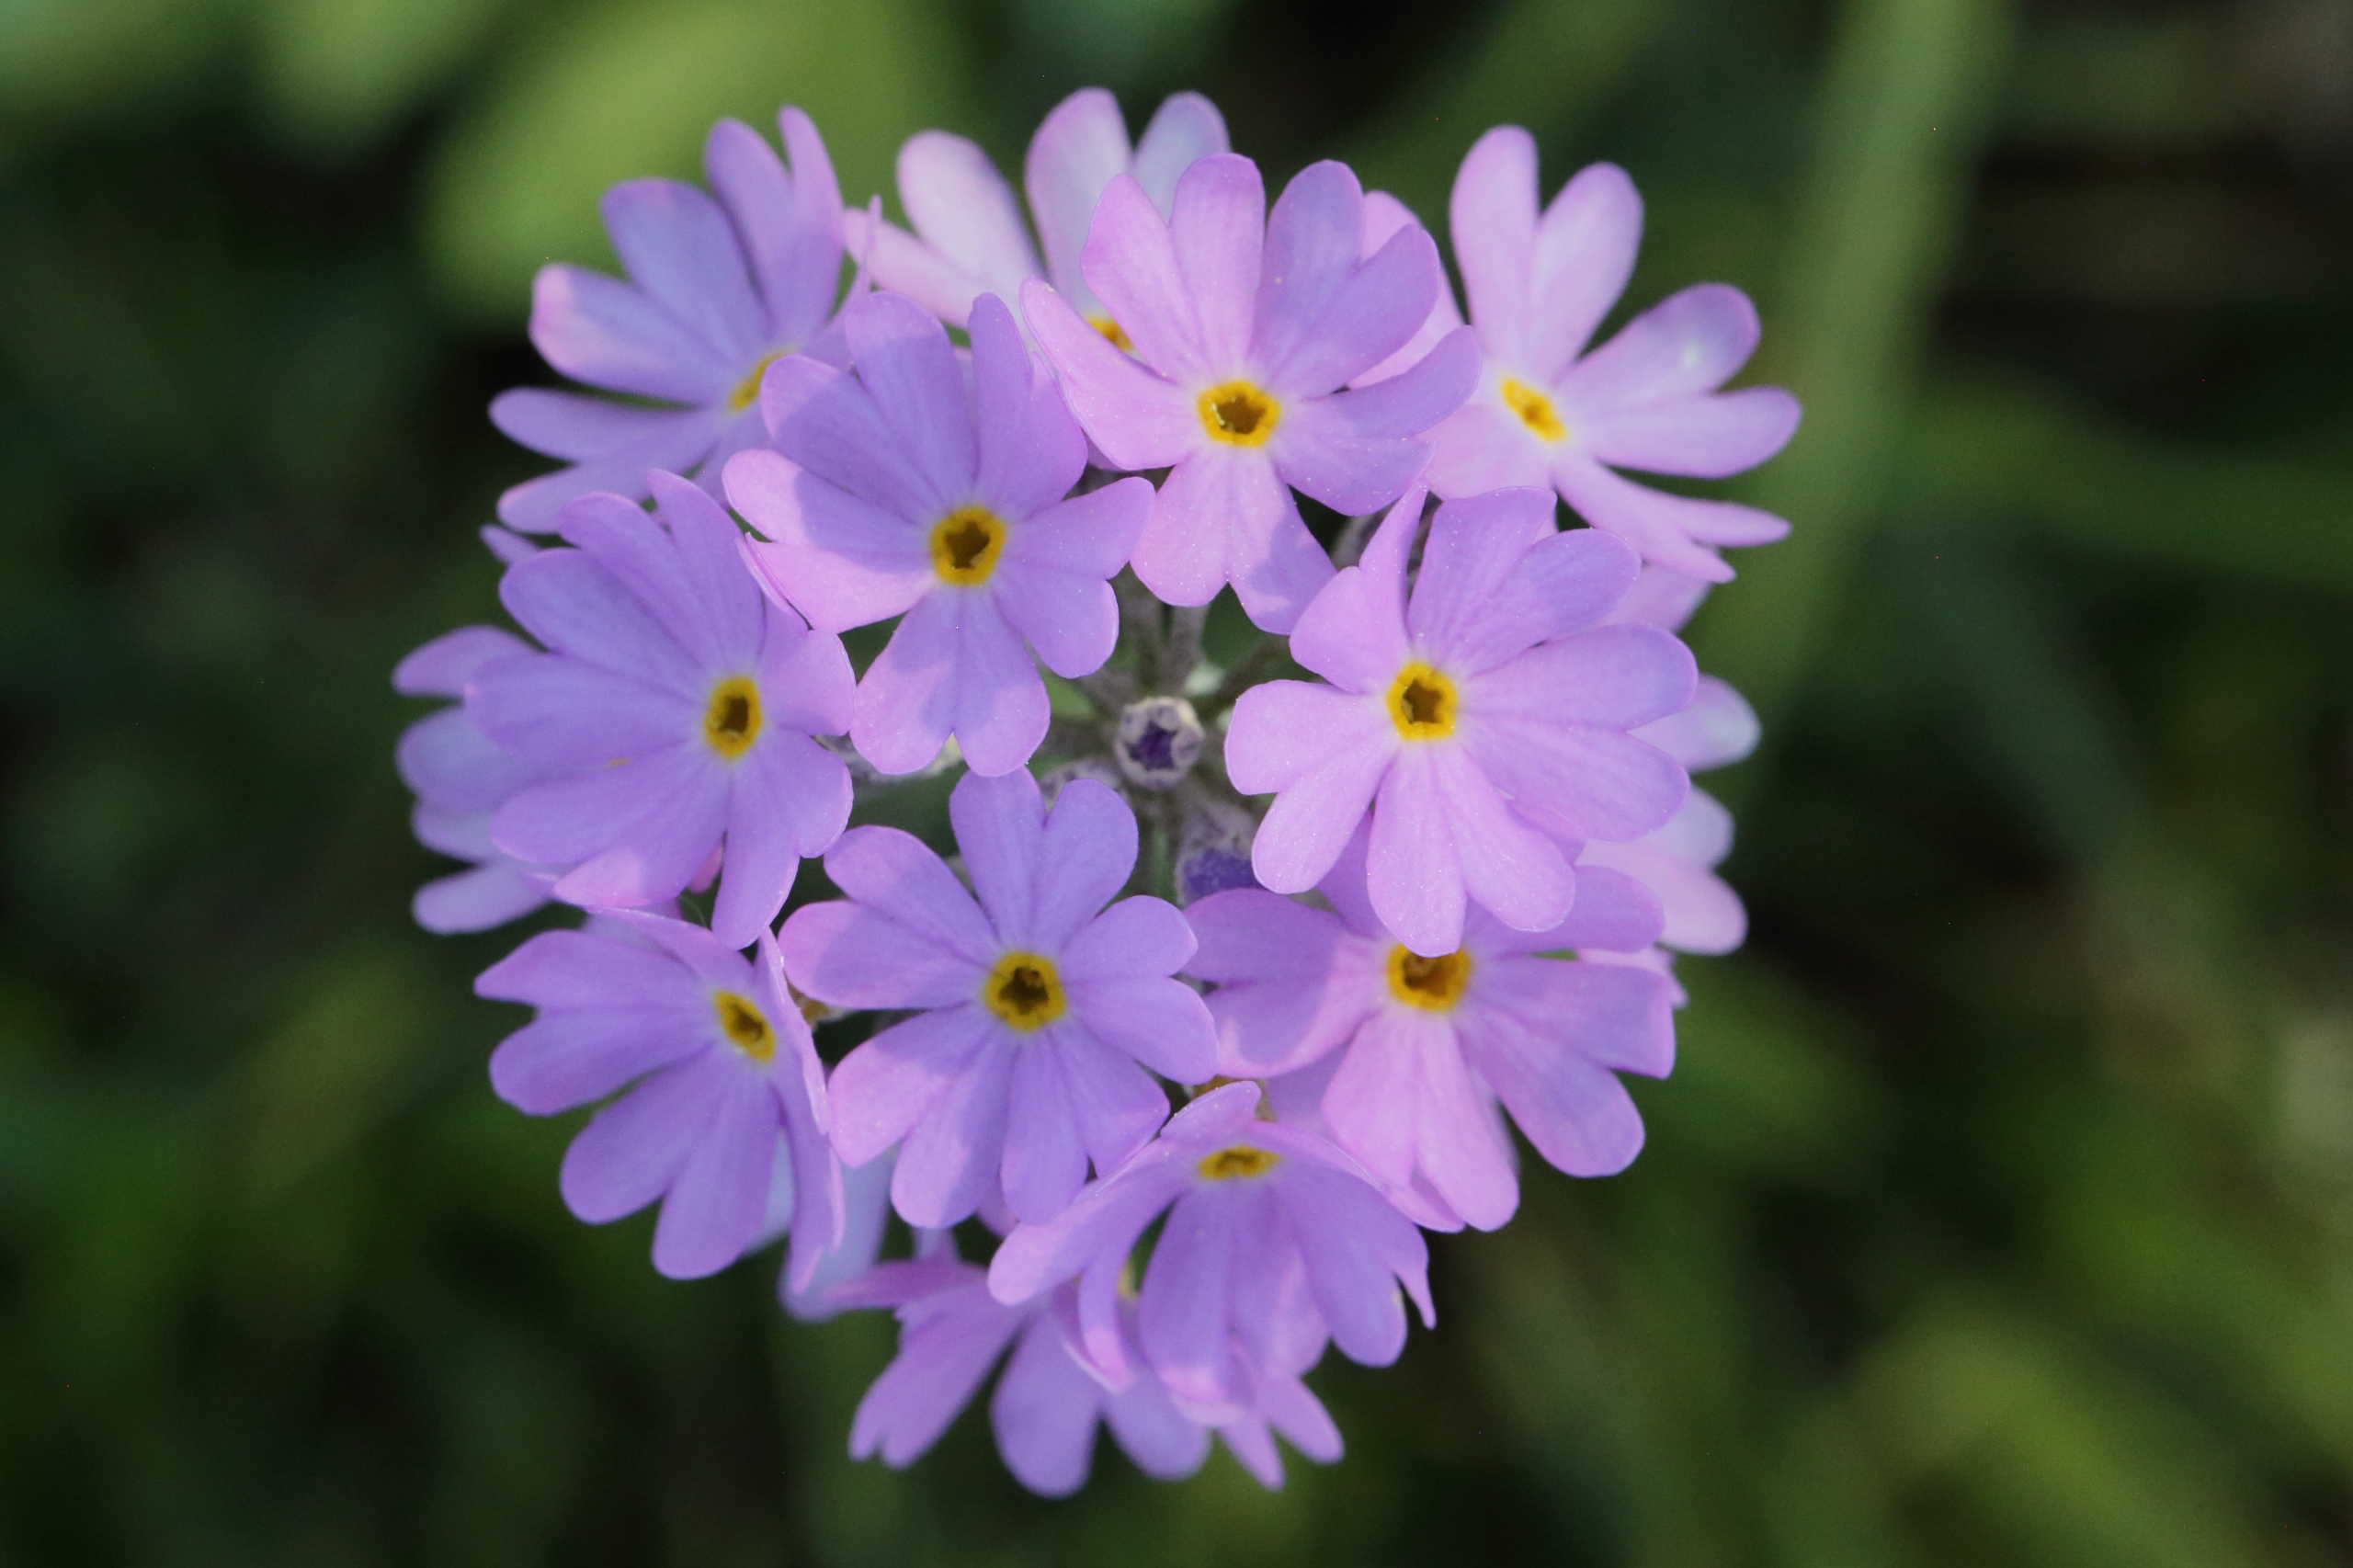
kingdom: Plantae
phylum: Tracheophyta
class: Magnoliopsida
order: Ericales
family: Primulaceae
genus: Primula
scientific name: Primula farinosa
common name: Melet kodriver
